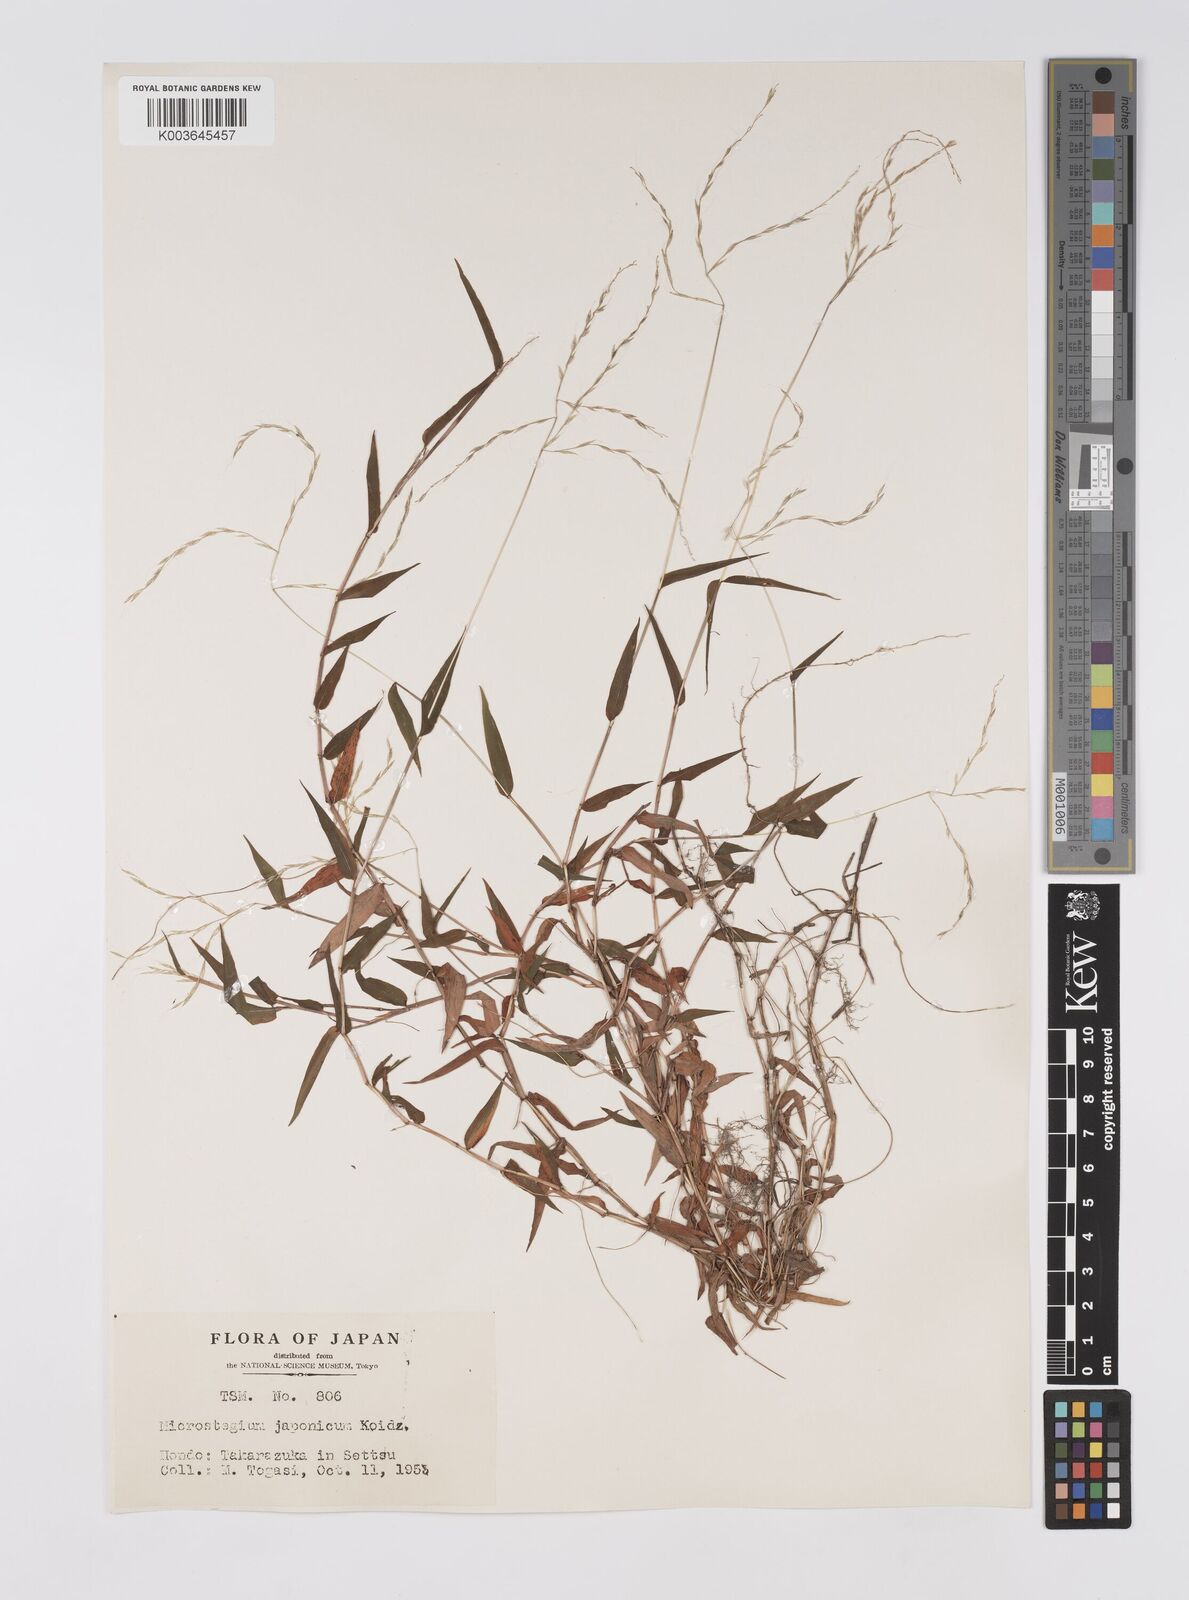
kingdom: Plantae
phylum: Tracheophyta
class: Liliopsida
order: Poales
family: Poaceae
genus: Microstegium
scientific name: Microstegium japonicum
